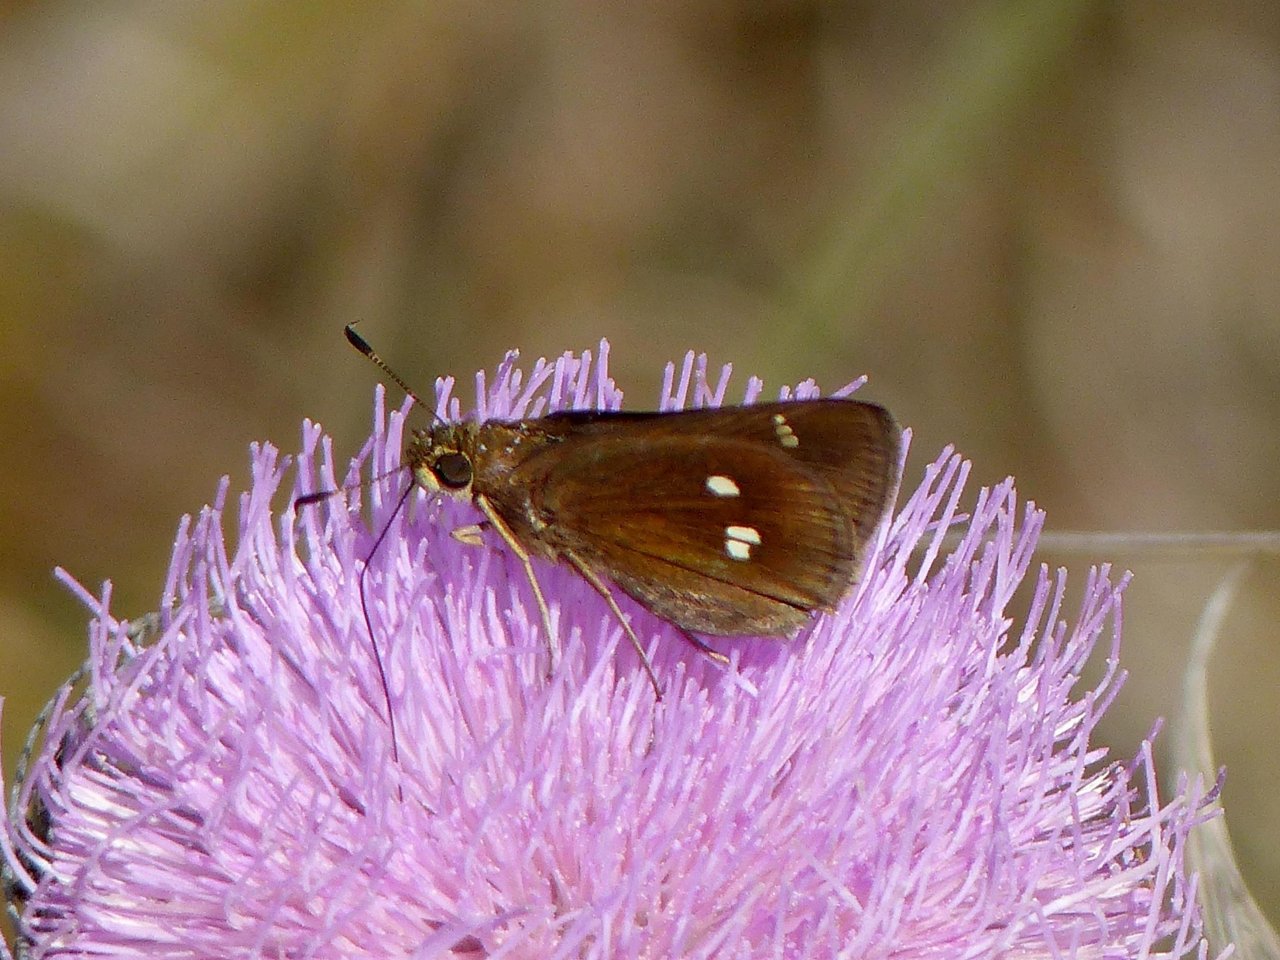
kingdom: Animalia
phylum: Arthropoda
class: Insecta
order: Lepidoptera
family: Hesperiidae
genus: Oligoria
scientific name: Oligoria maculata
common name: Twin-spot Skipper
